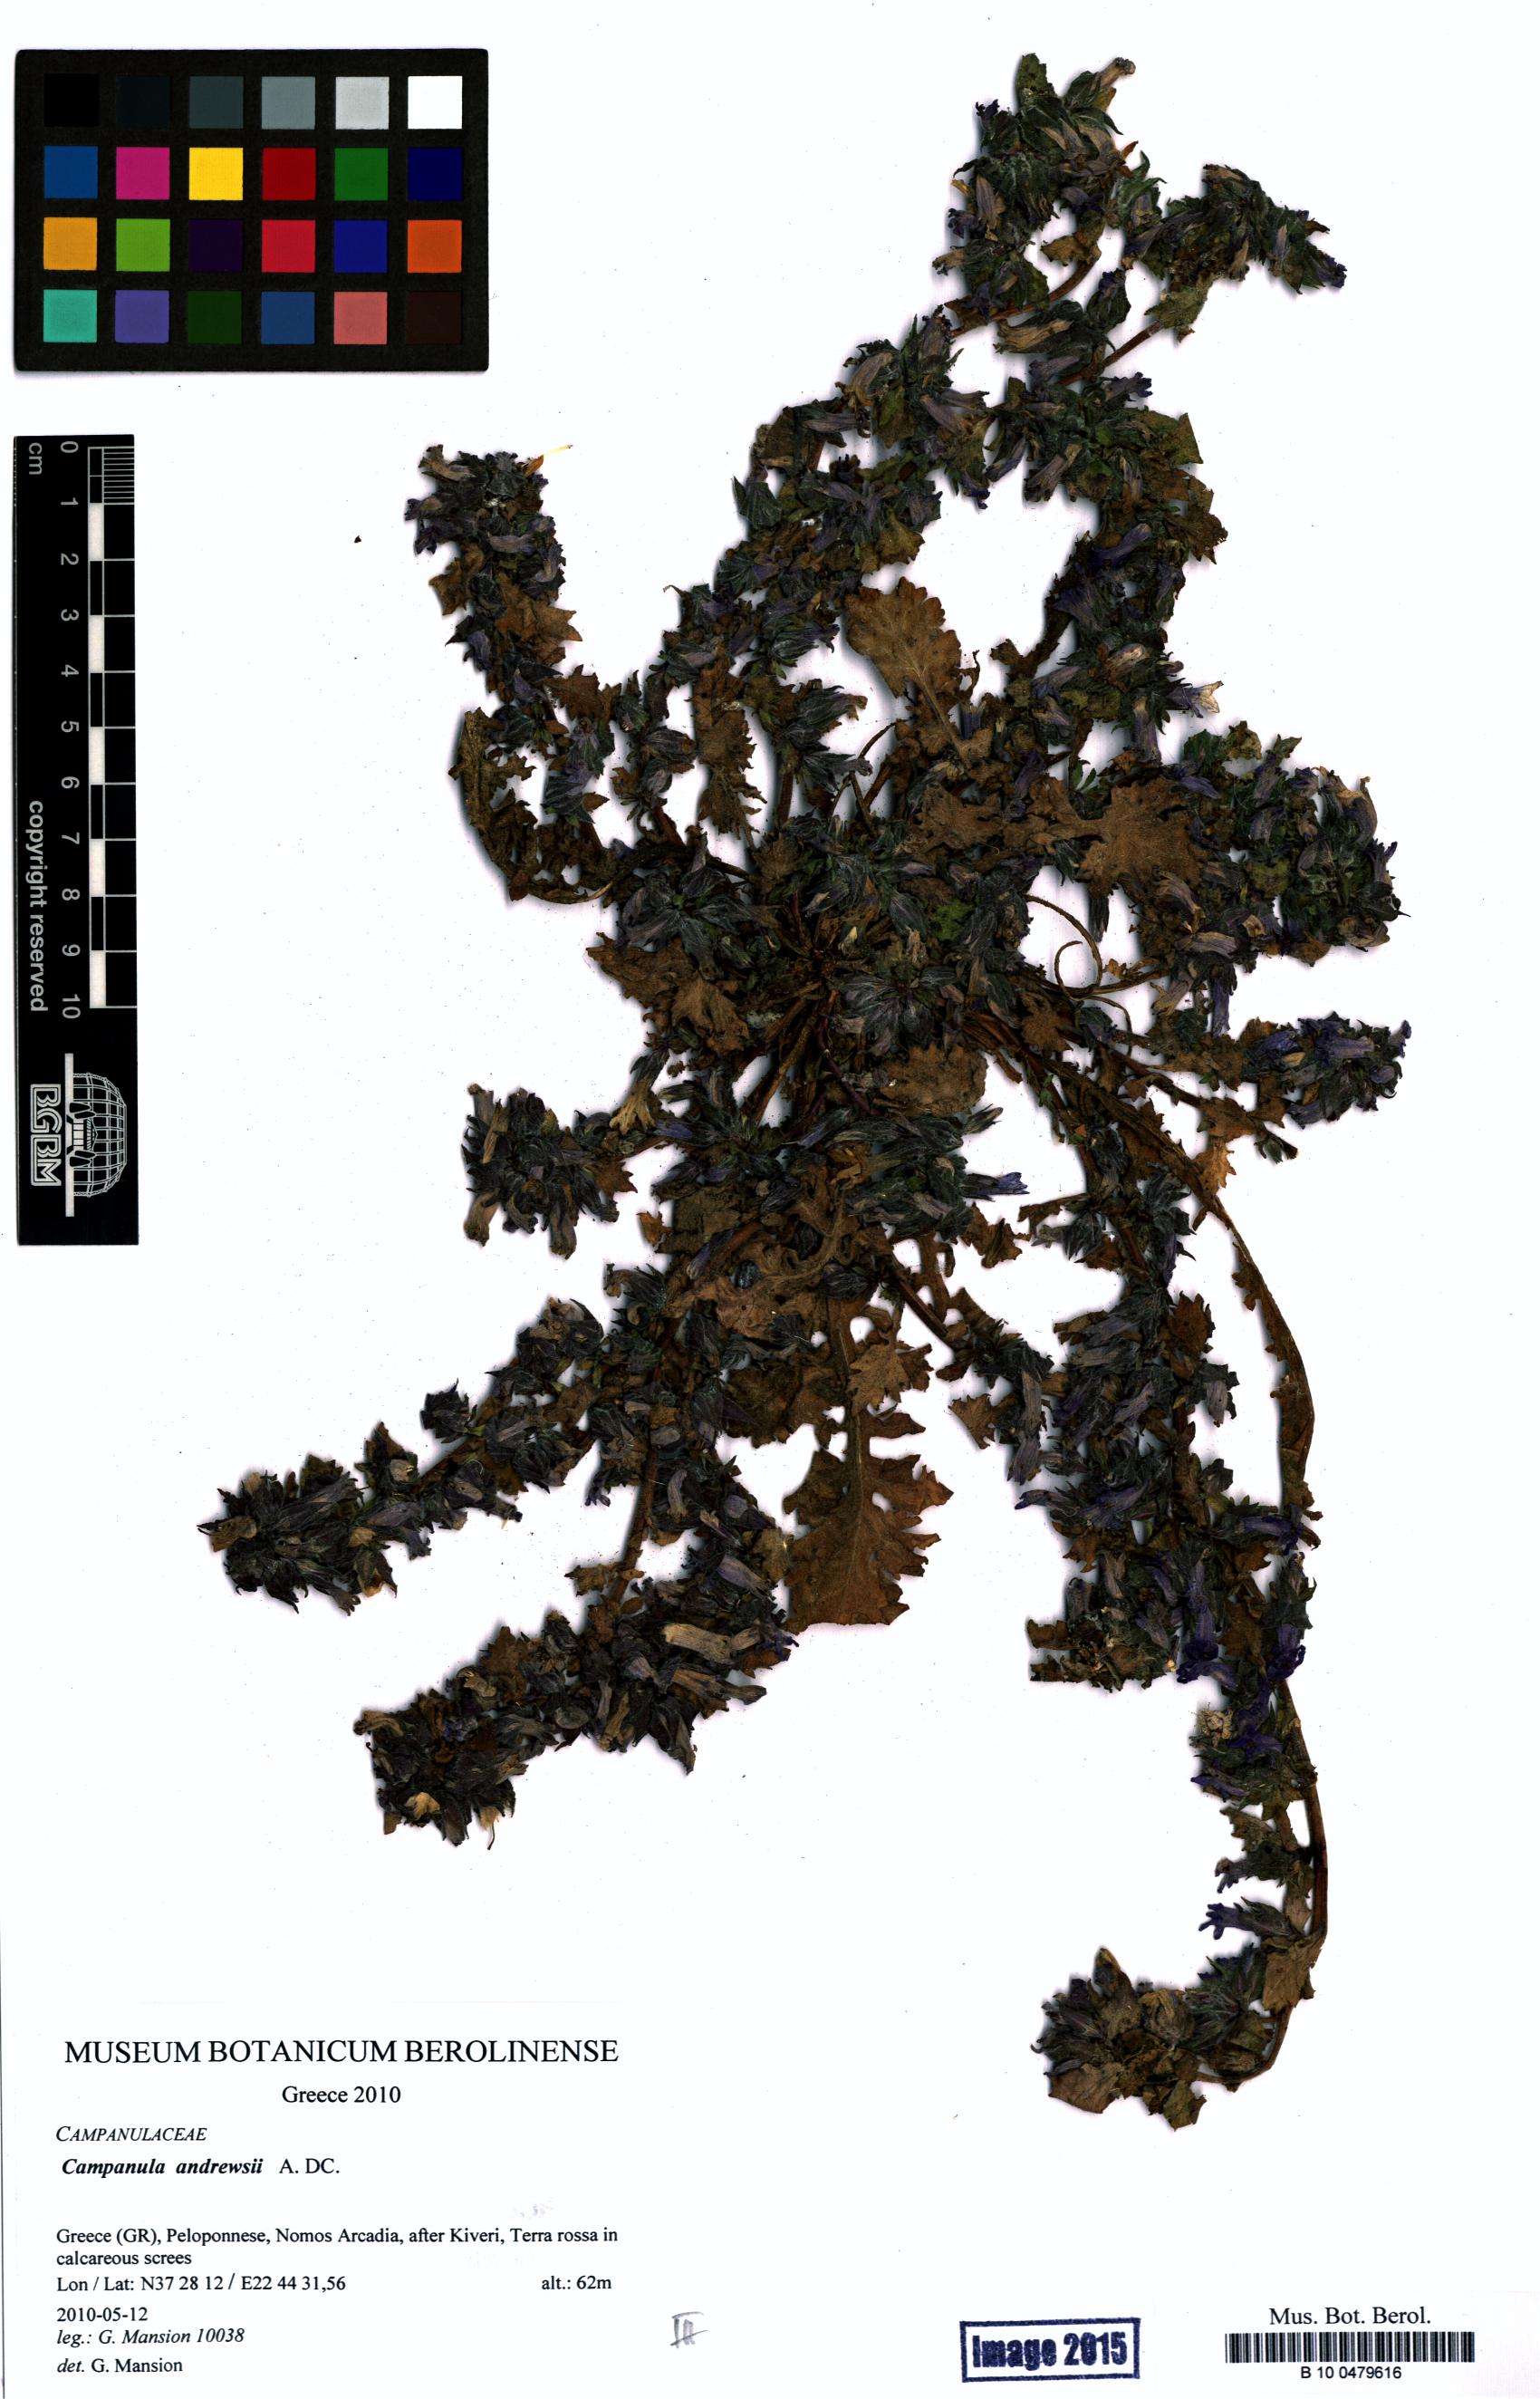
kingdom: Plantae
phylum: Tracheophyta
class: Magnoliopsida
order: Asterales
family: Campanulaceae
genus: Campanula
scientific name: Campanula andrewsii
